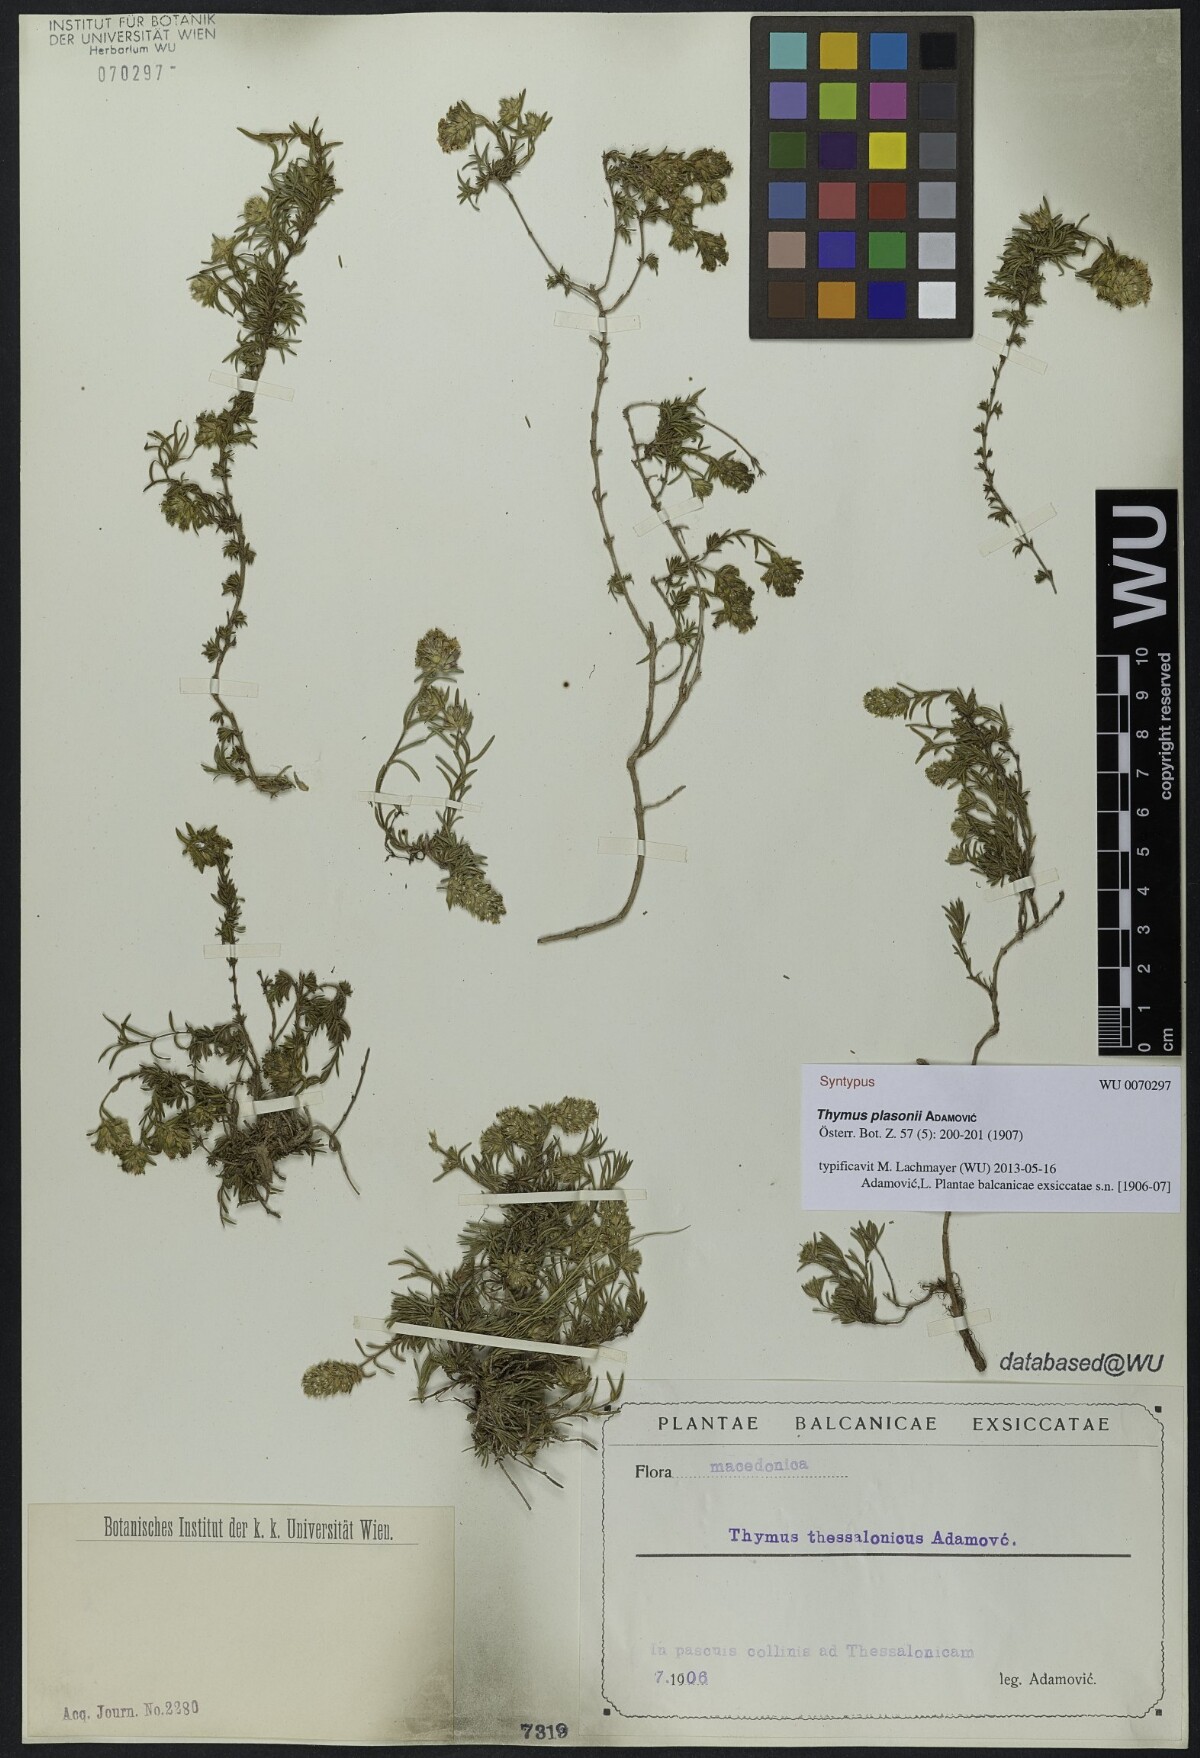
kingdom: Plantae
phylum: Tracheophyta
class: Magnoliopsida
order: Lamiales
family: Lamiaceae
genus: Thymus
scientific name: Thymus plasonii
